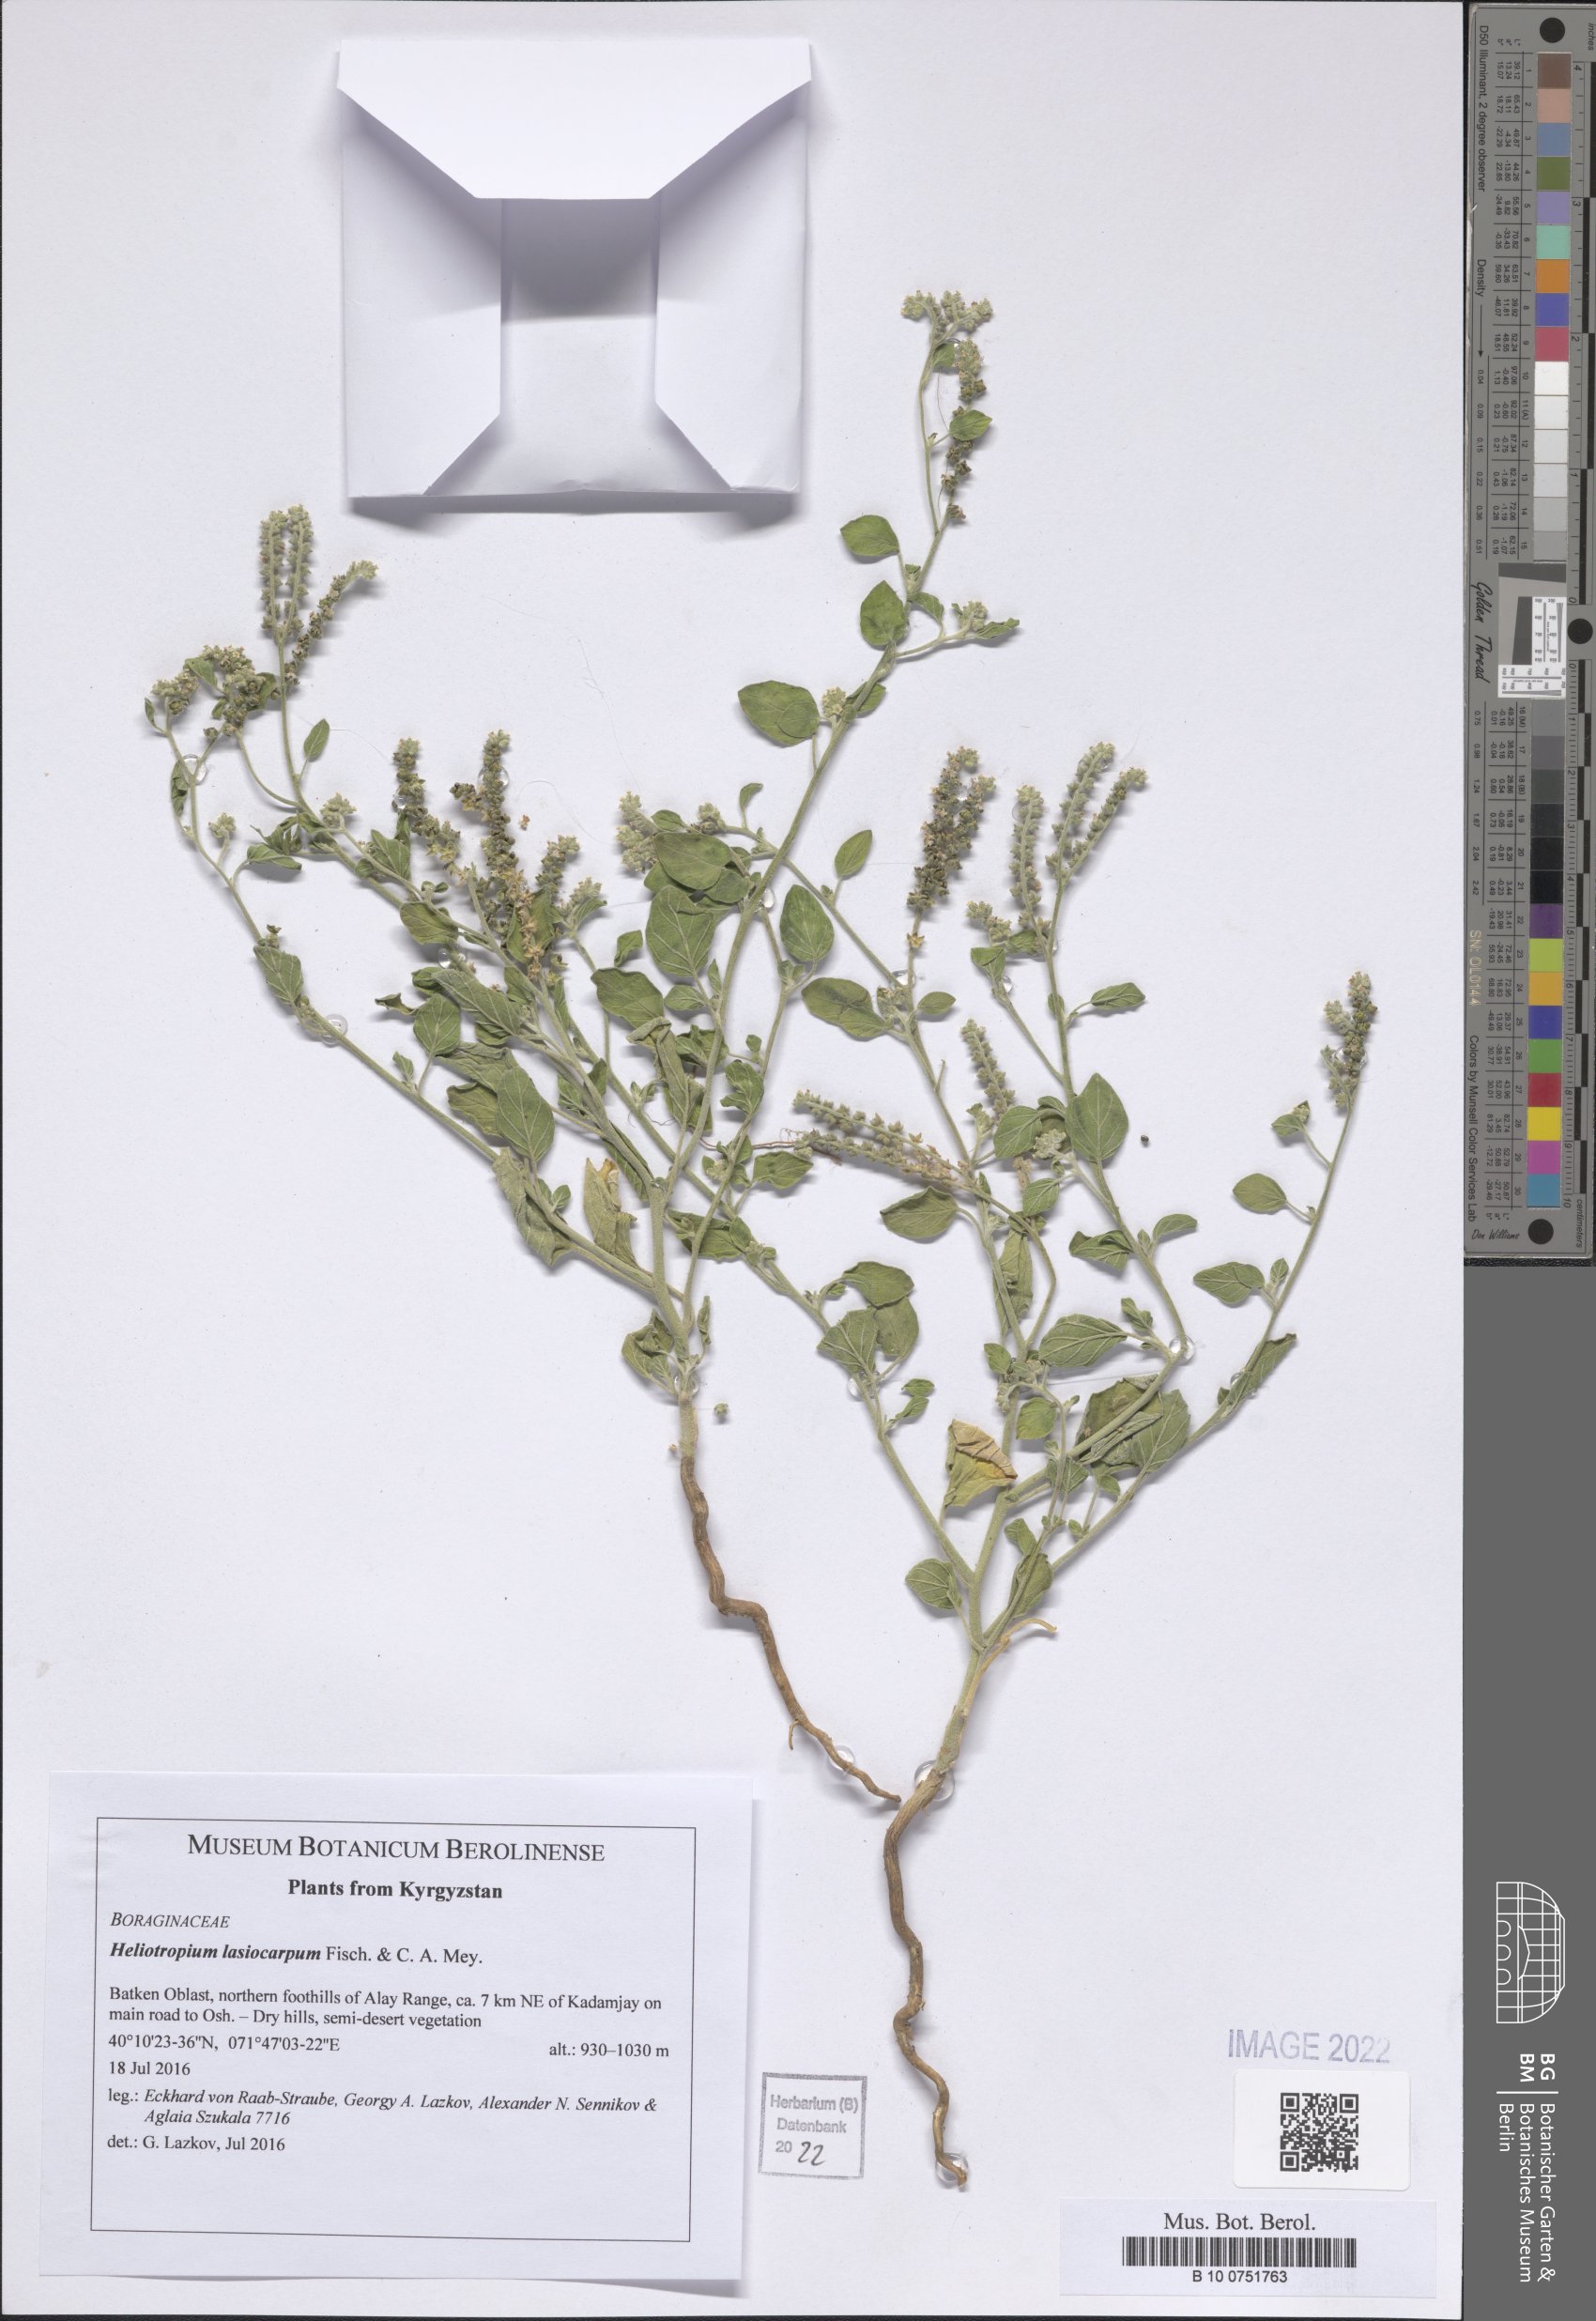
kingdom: Plantae
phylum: Tracheophyta
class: Magnoliopsida
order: Boraginales
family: Heliotropiaceae
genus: Heliotropium
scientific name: Heliotropium lasiocarpum
